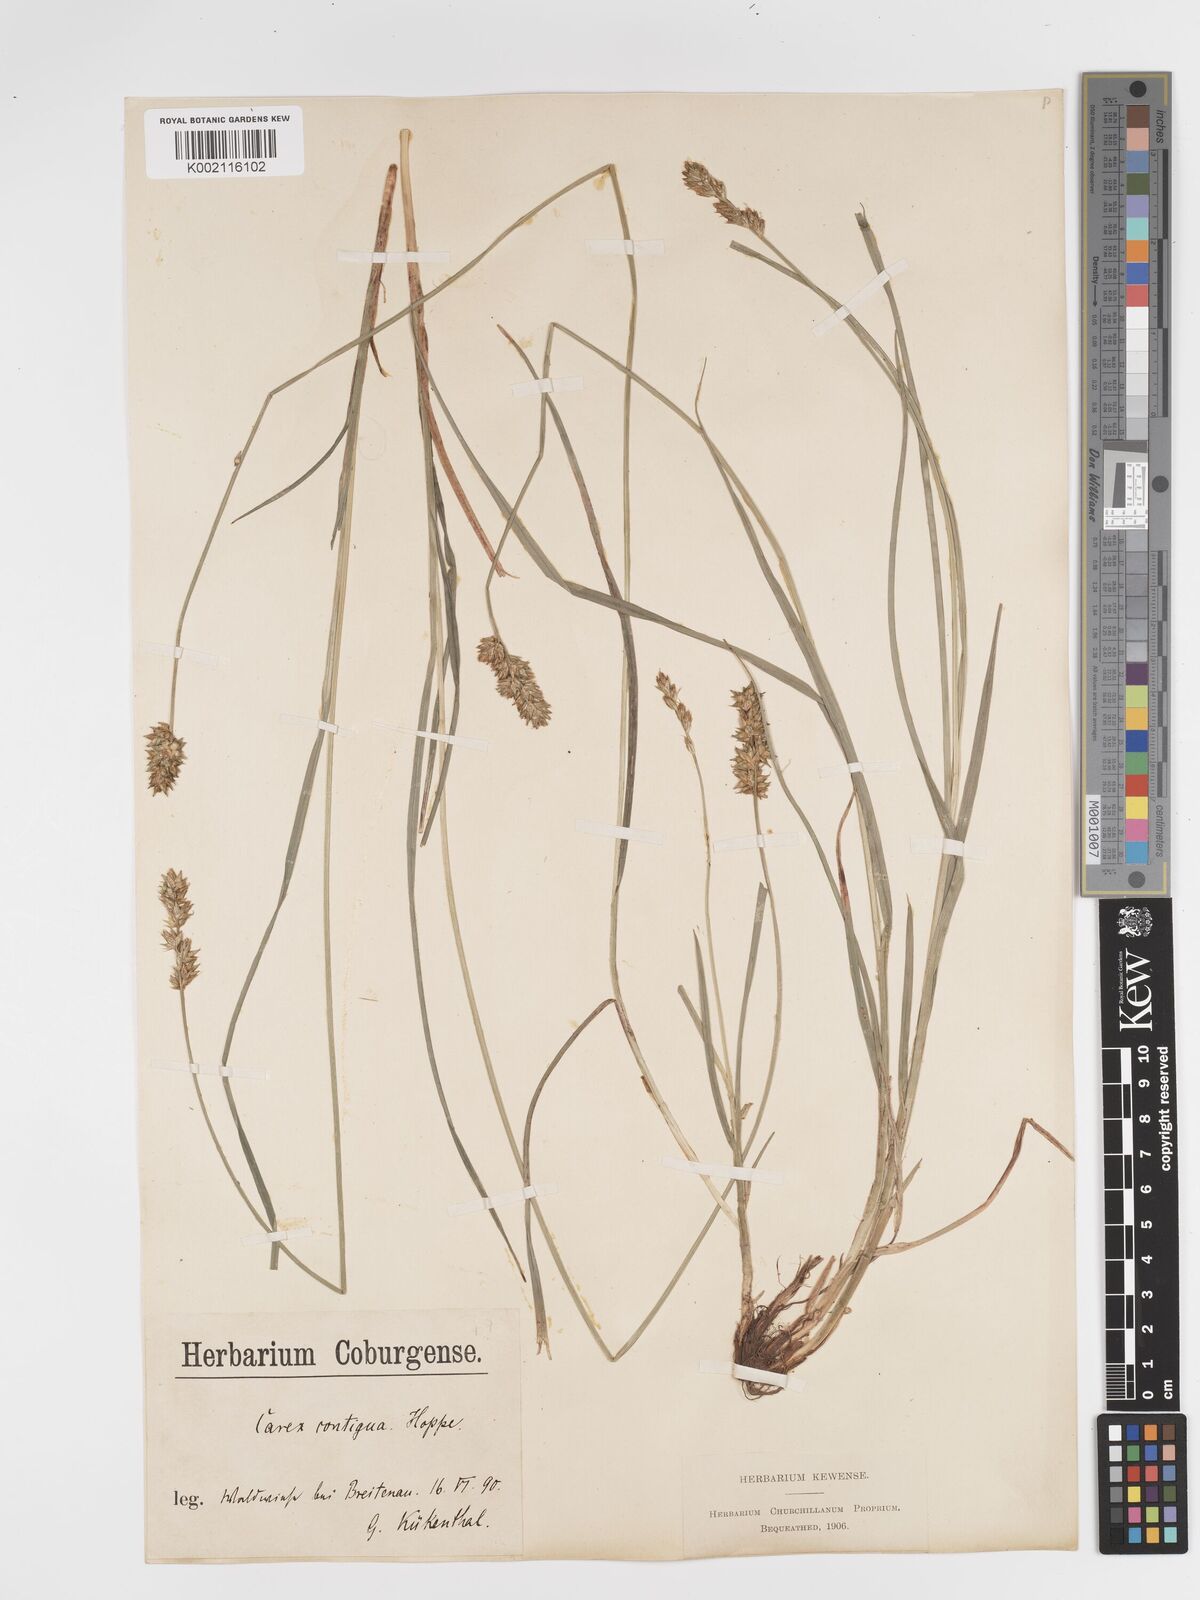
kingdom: Plantae
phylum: Tracheophyta
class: Liliopsida
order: Poales
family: Cyperaceae
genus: Carex
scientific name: Carex spicata
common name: Spiked sedge
